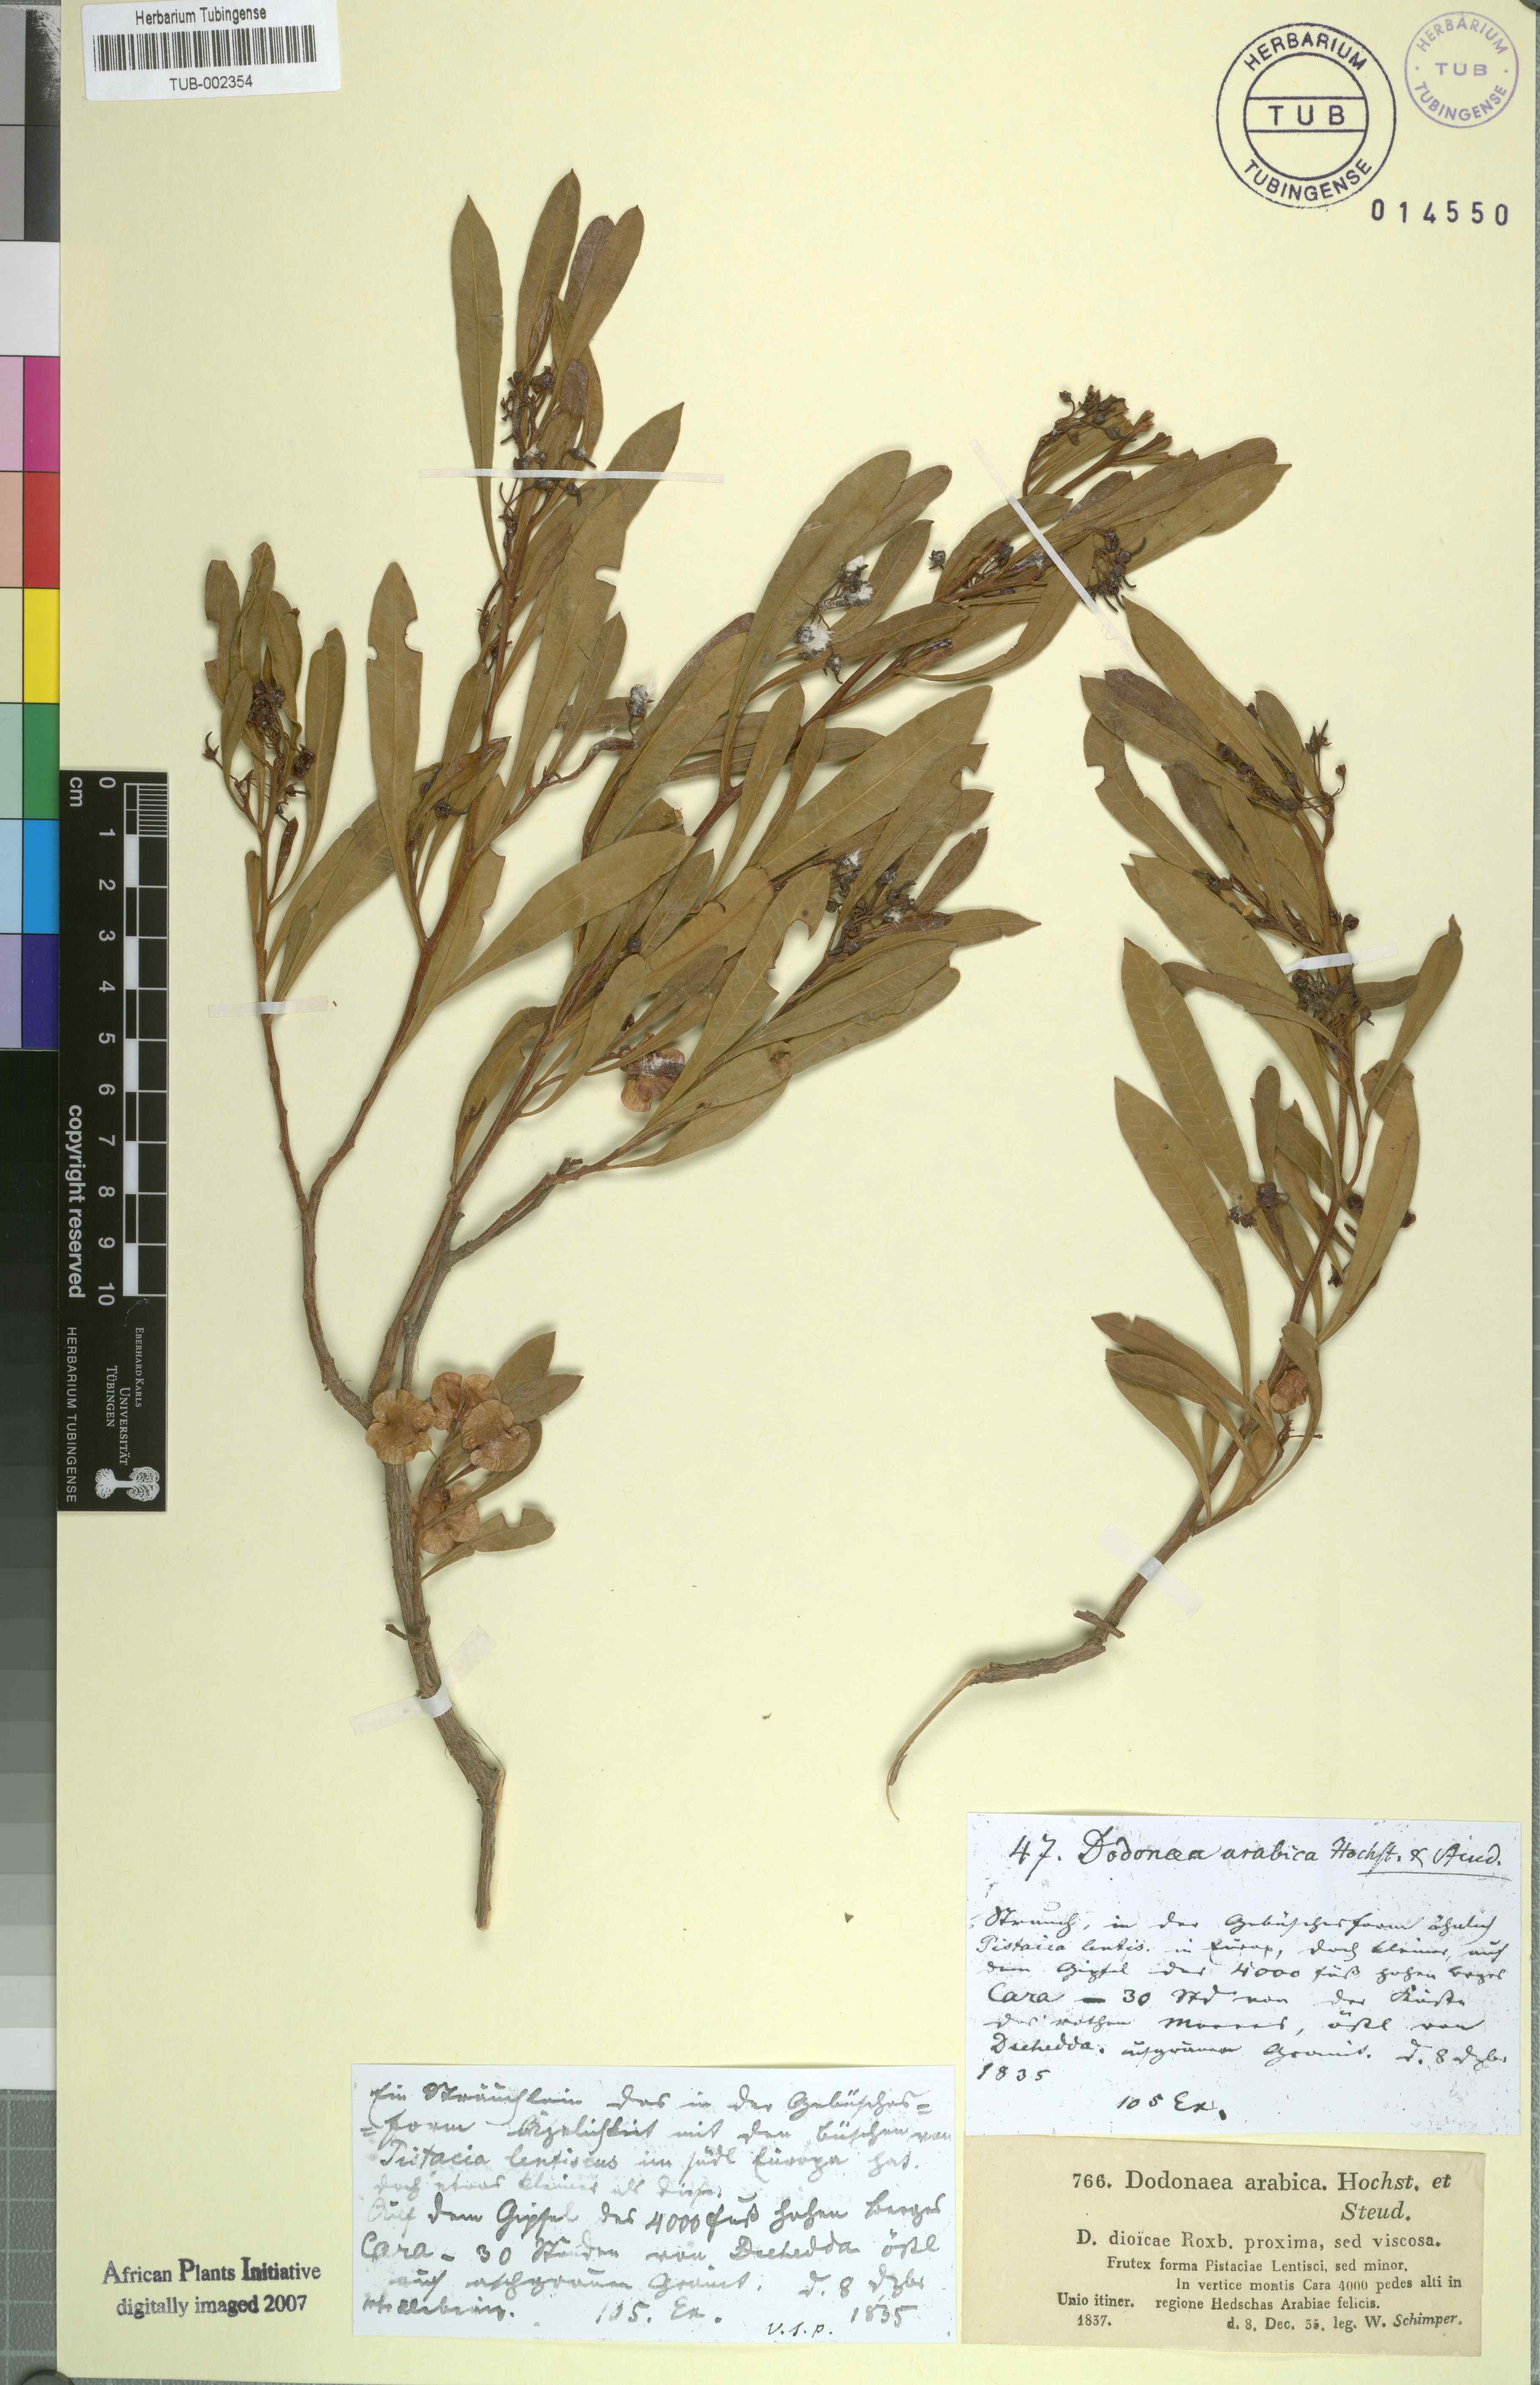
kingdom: Plantae
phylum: Tracheophyta
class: Magnoliopsida
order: Sapindales
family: Sapindaceae
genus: Dodonaea
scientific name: Dodonaea viscosa
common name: Hopbush
